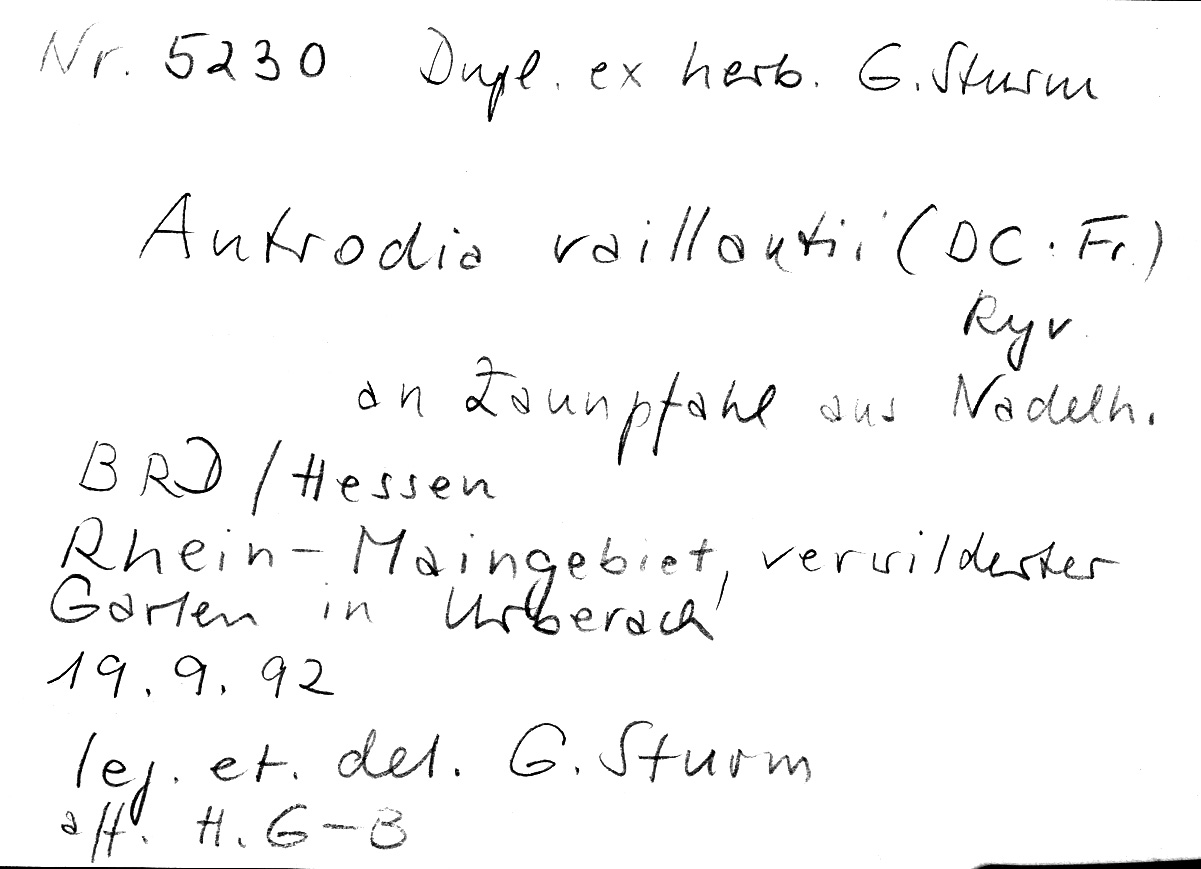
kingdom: Fungi
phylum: Basidiomycota
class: Agaricomycetes
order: Polyporales
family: Fibroporiaceae
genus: Fibroporia
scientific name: Fibroporia vaillantii
